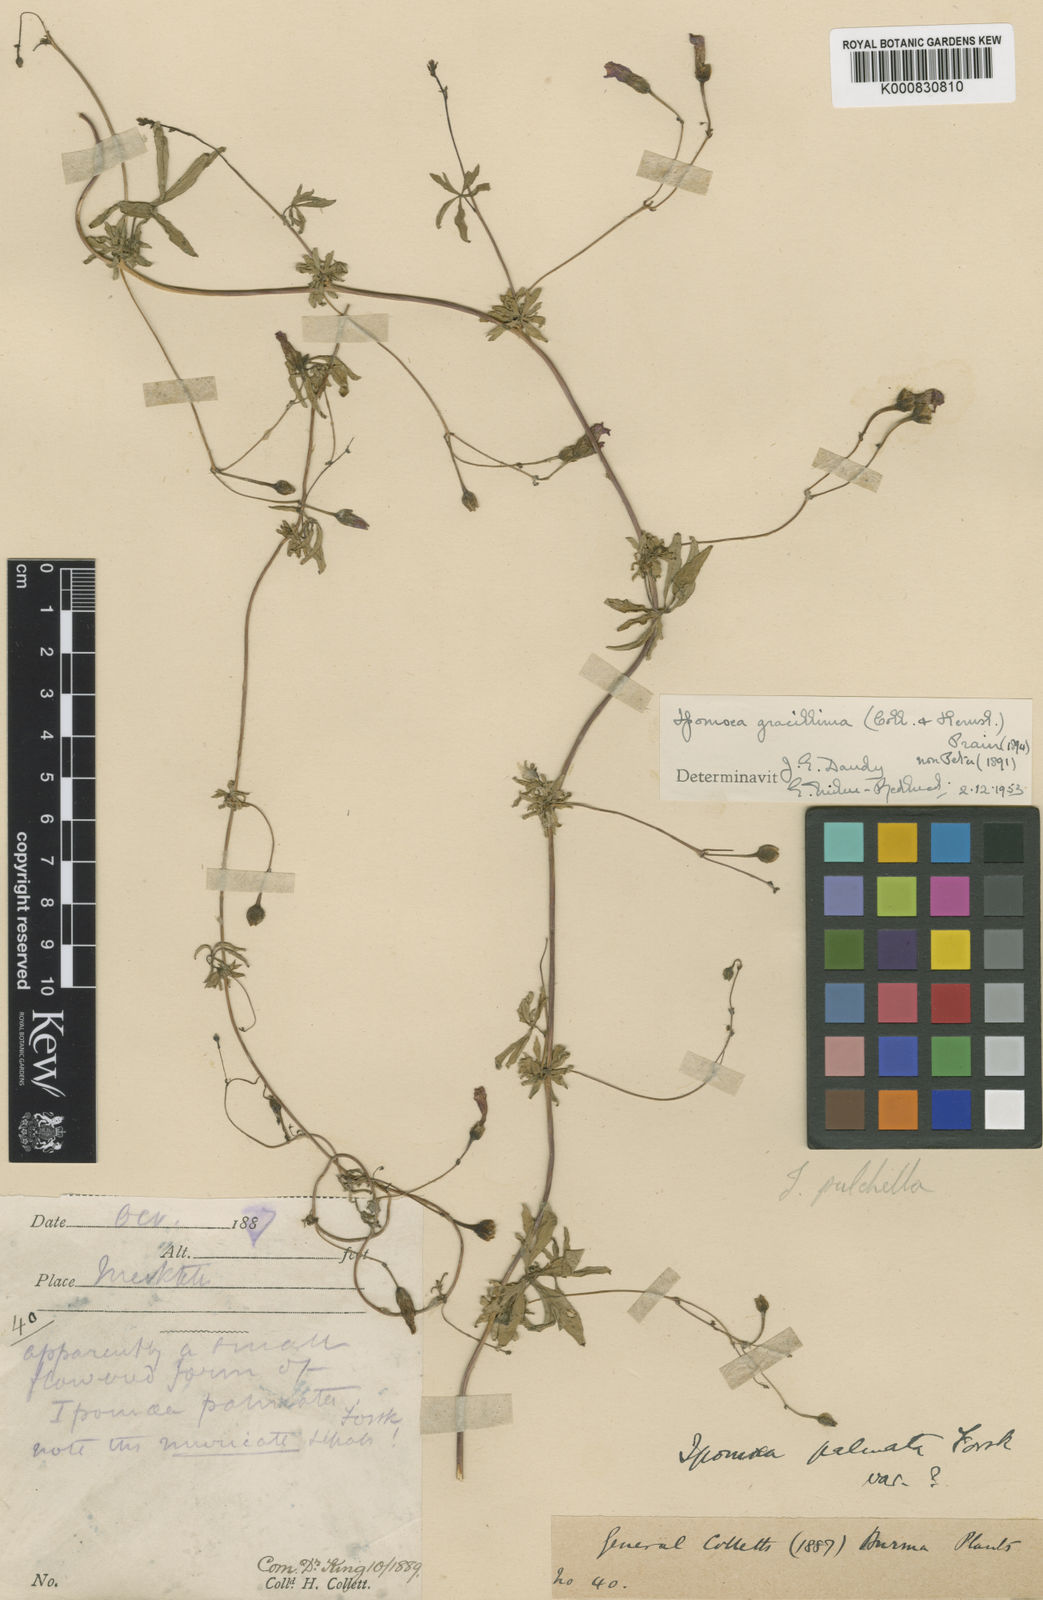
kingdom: Plantae
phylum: Tracheophyta
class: Magnoliopsida
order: Solanales
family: Convolvulaceae
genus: Ipomoea
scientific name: Ipomoea cairica
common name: Mile a minute vine
